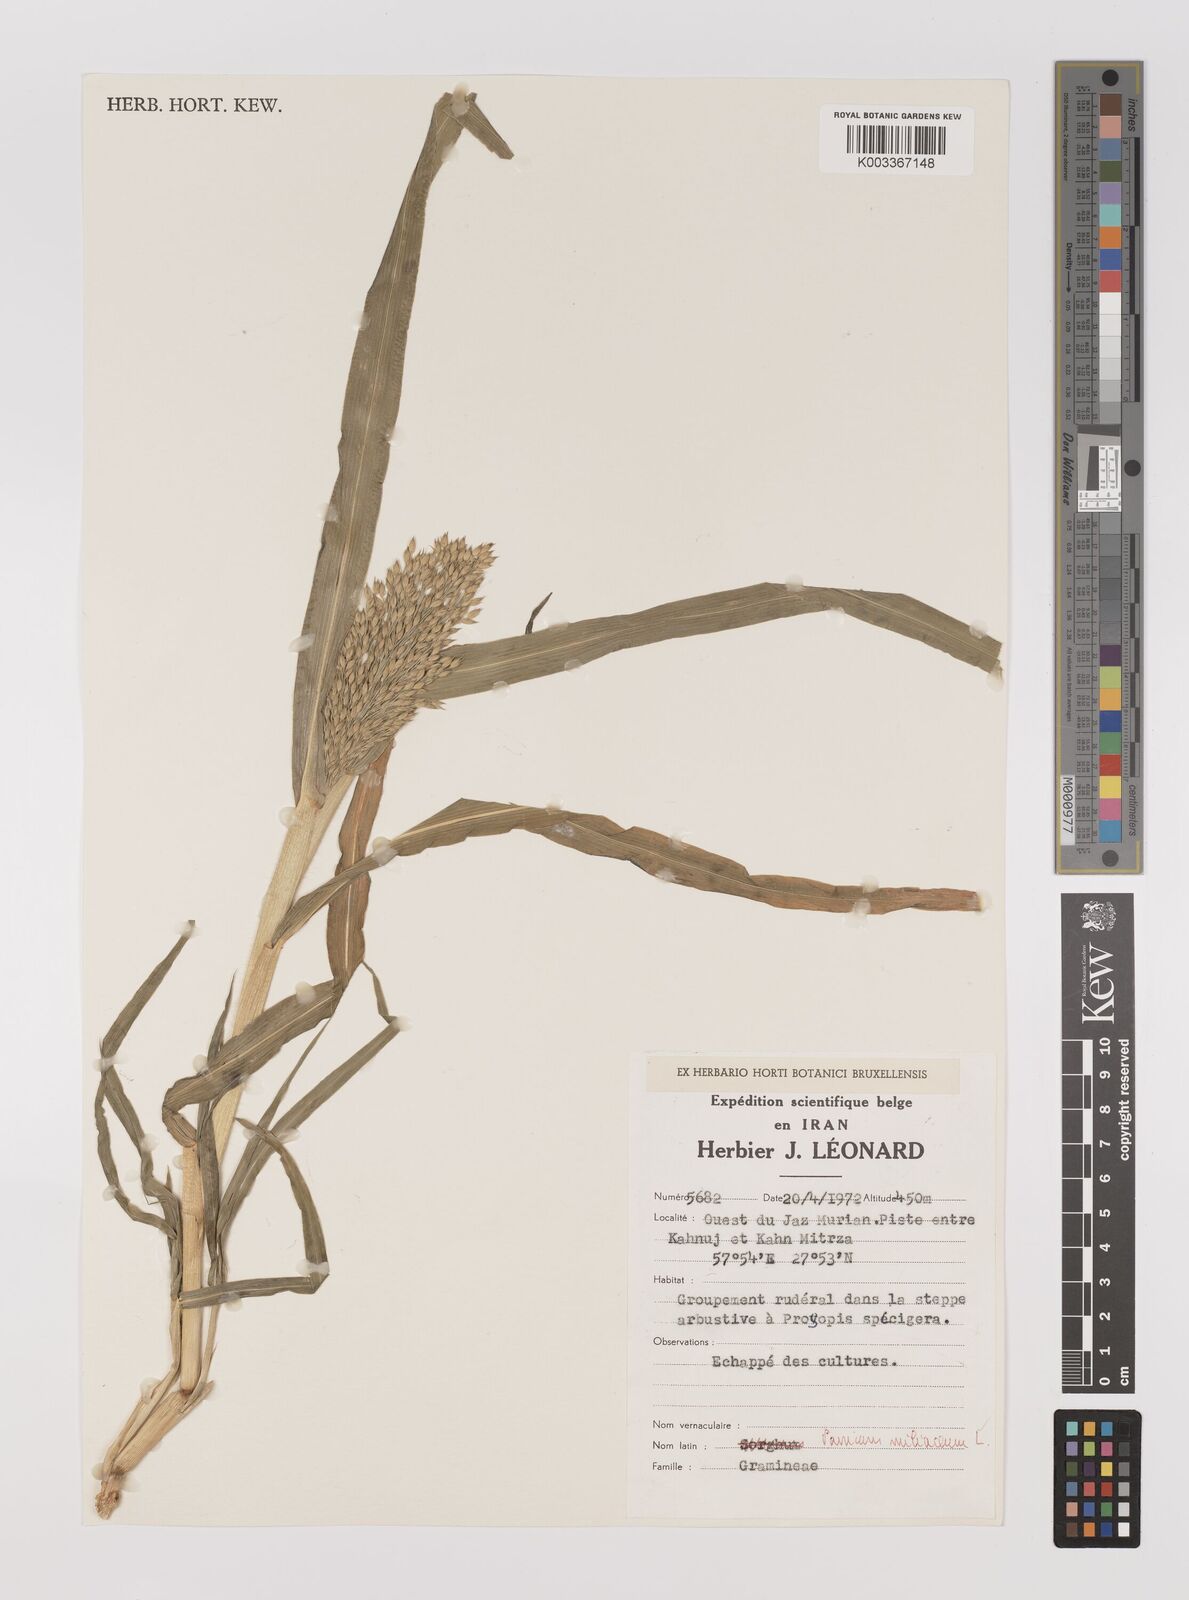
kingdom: Plantae
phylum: Tracheophyta
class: Liliopsida
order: Poales
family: Poaceae
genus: Panicum
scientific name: Panicum miliaceum
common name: Common millet
